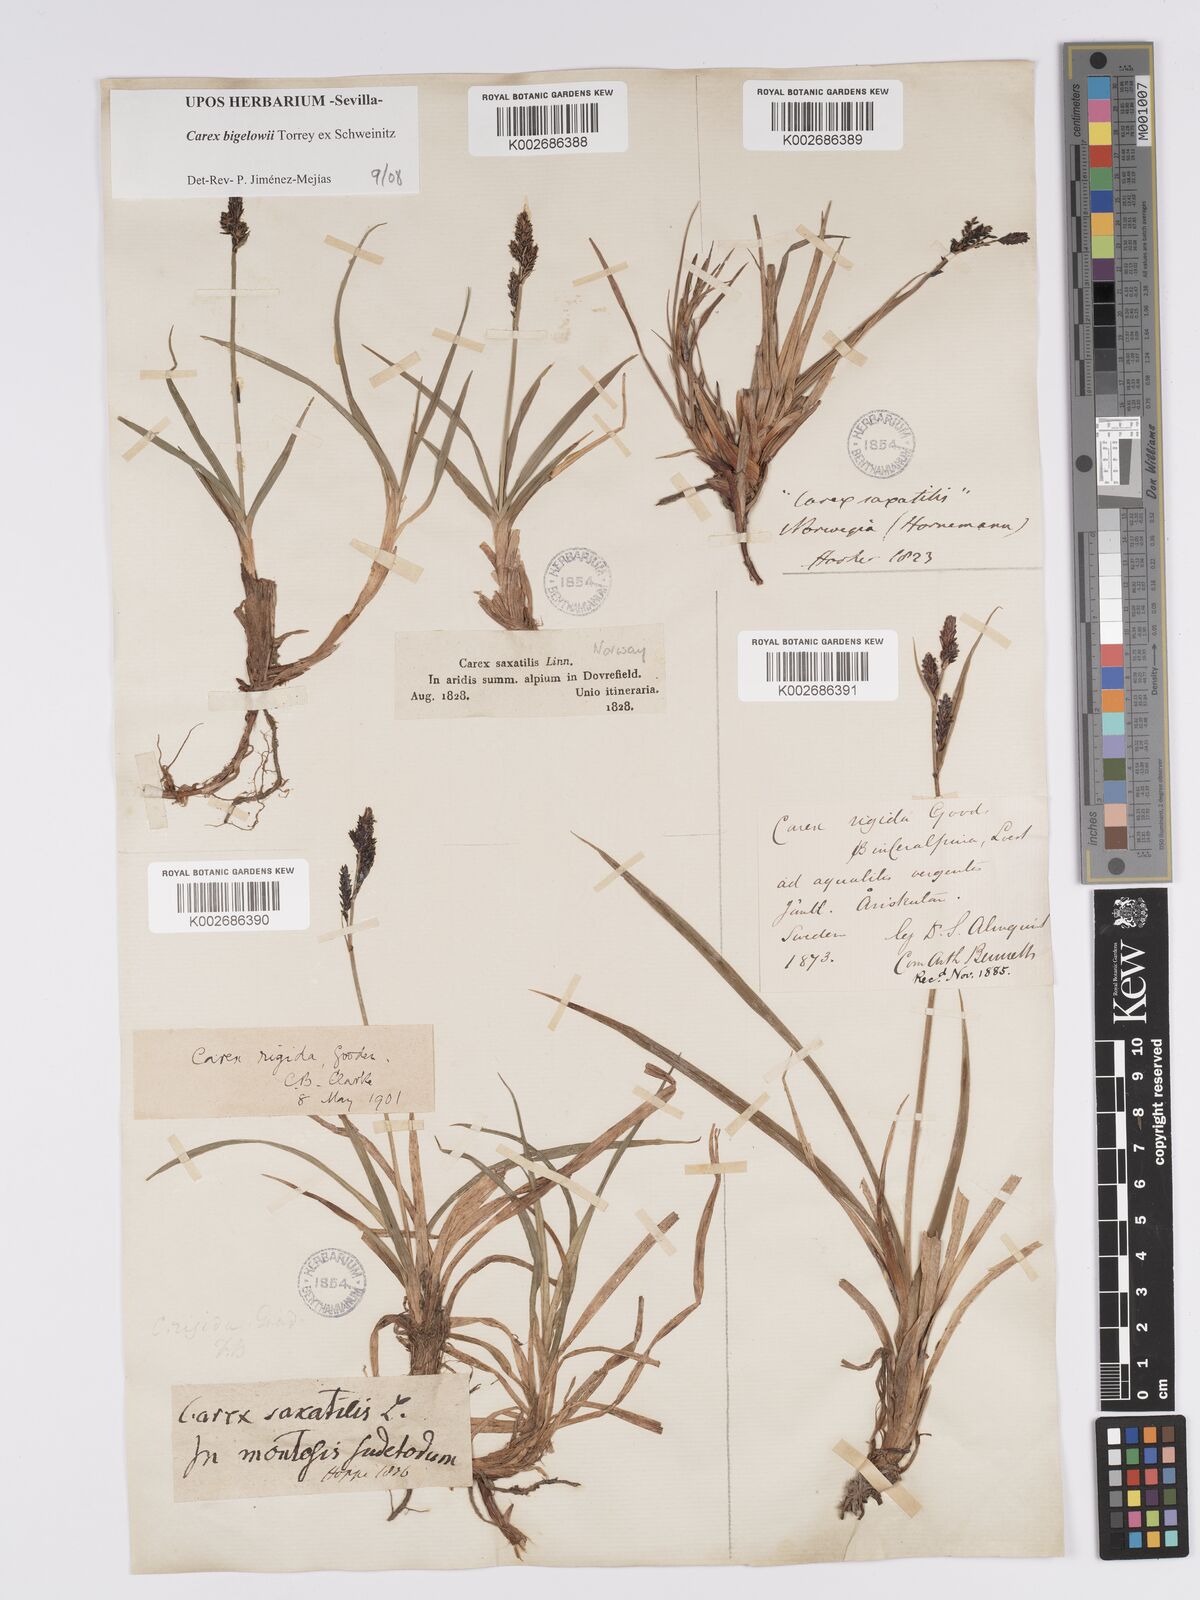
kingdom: Plantae
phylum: Tracheophyta
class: Liliopsida
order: Poales
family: Cyperaceae
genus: Carex
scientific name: Carex bigelowii
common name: Stiff sedge
